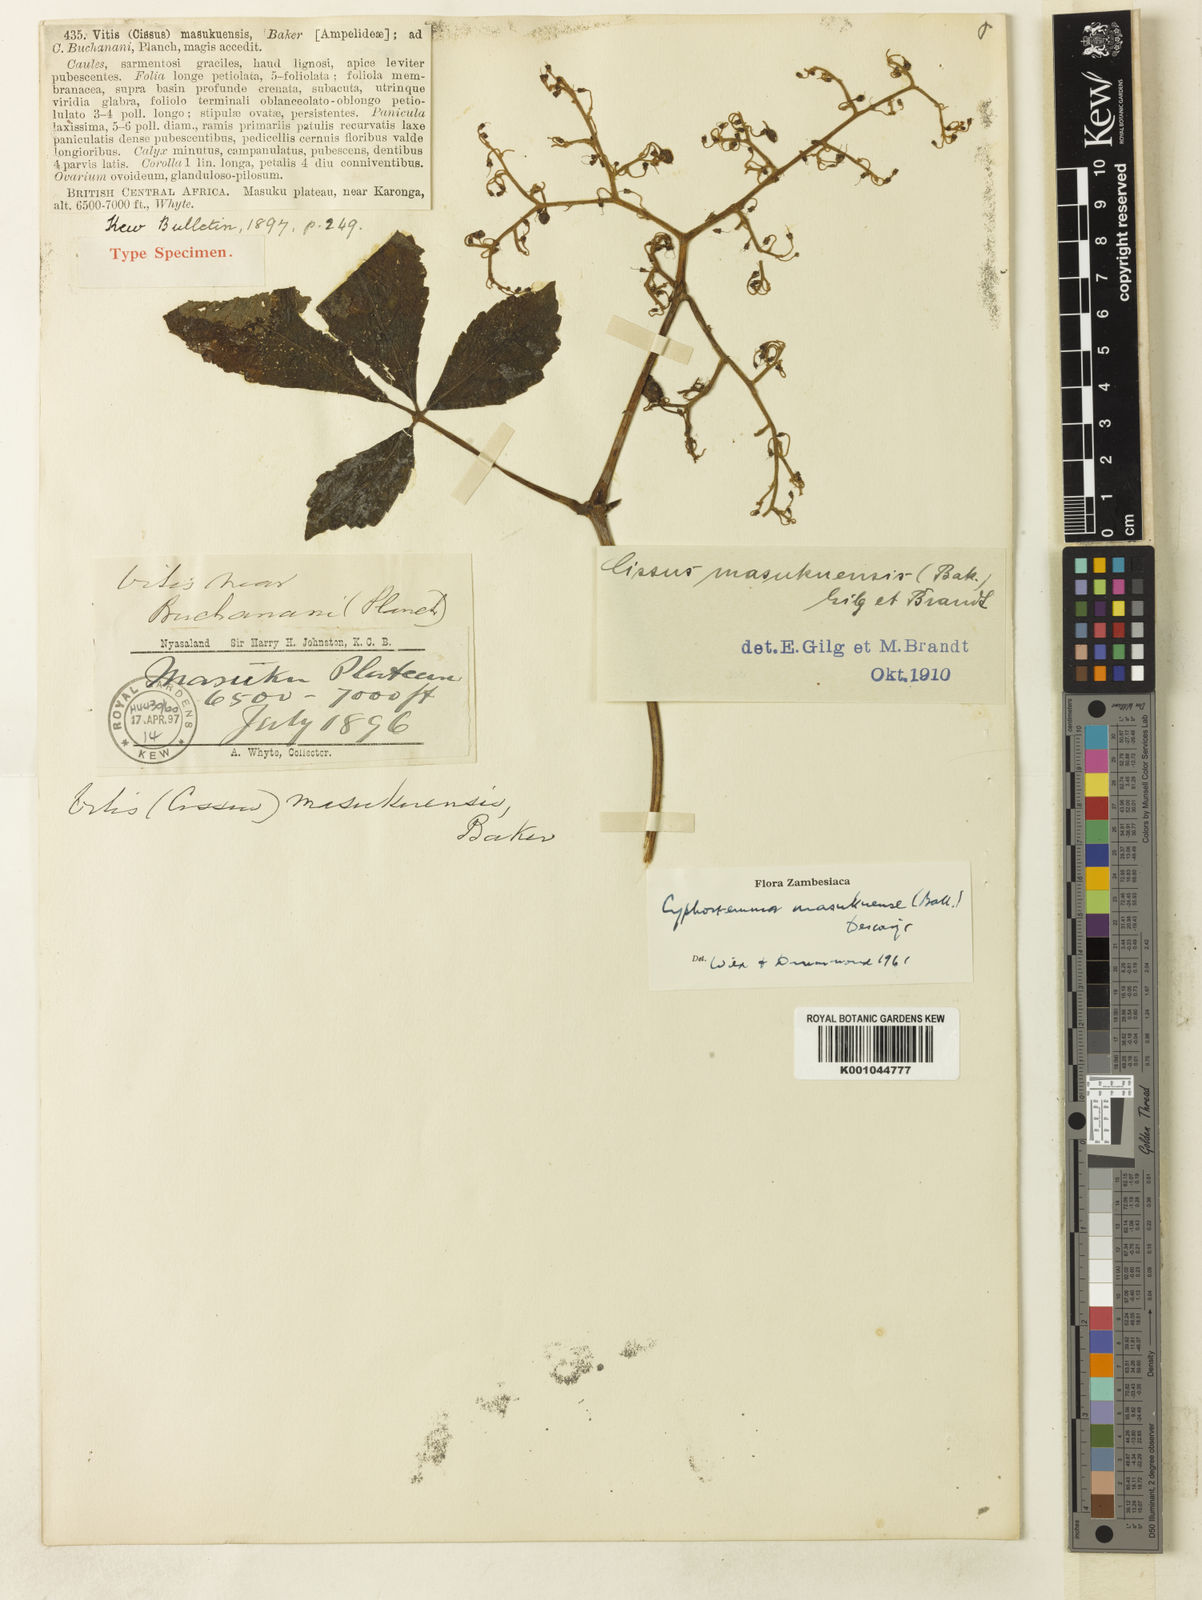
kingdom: Plantae
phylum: Tracheophyta
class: Magnoliopsida
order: Vitales
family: Vitaceae
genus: Cyphostemma
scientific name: Cyphostemma
